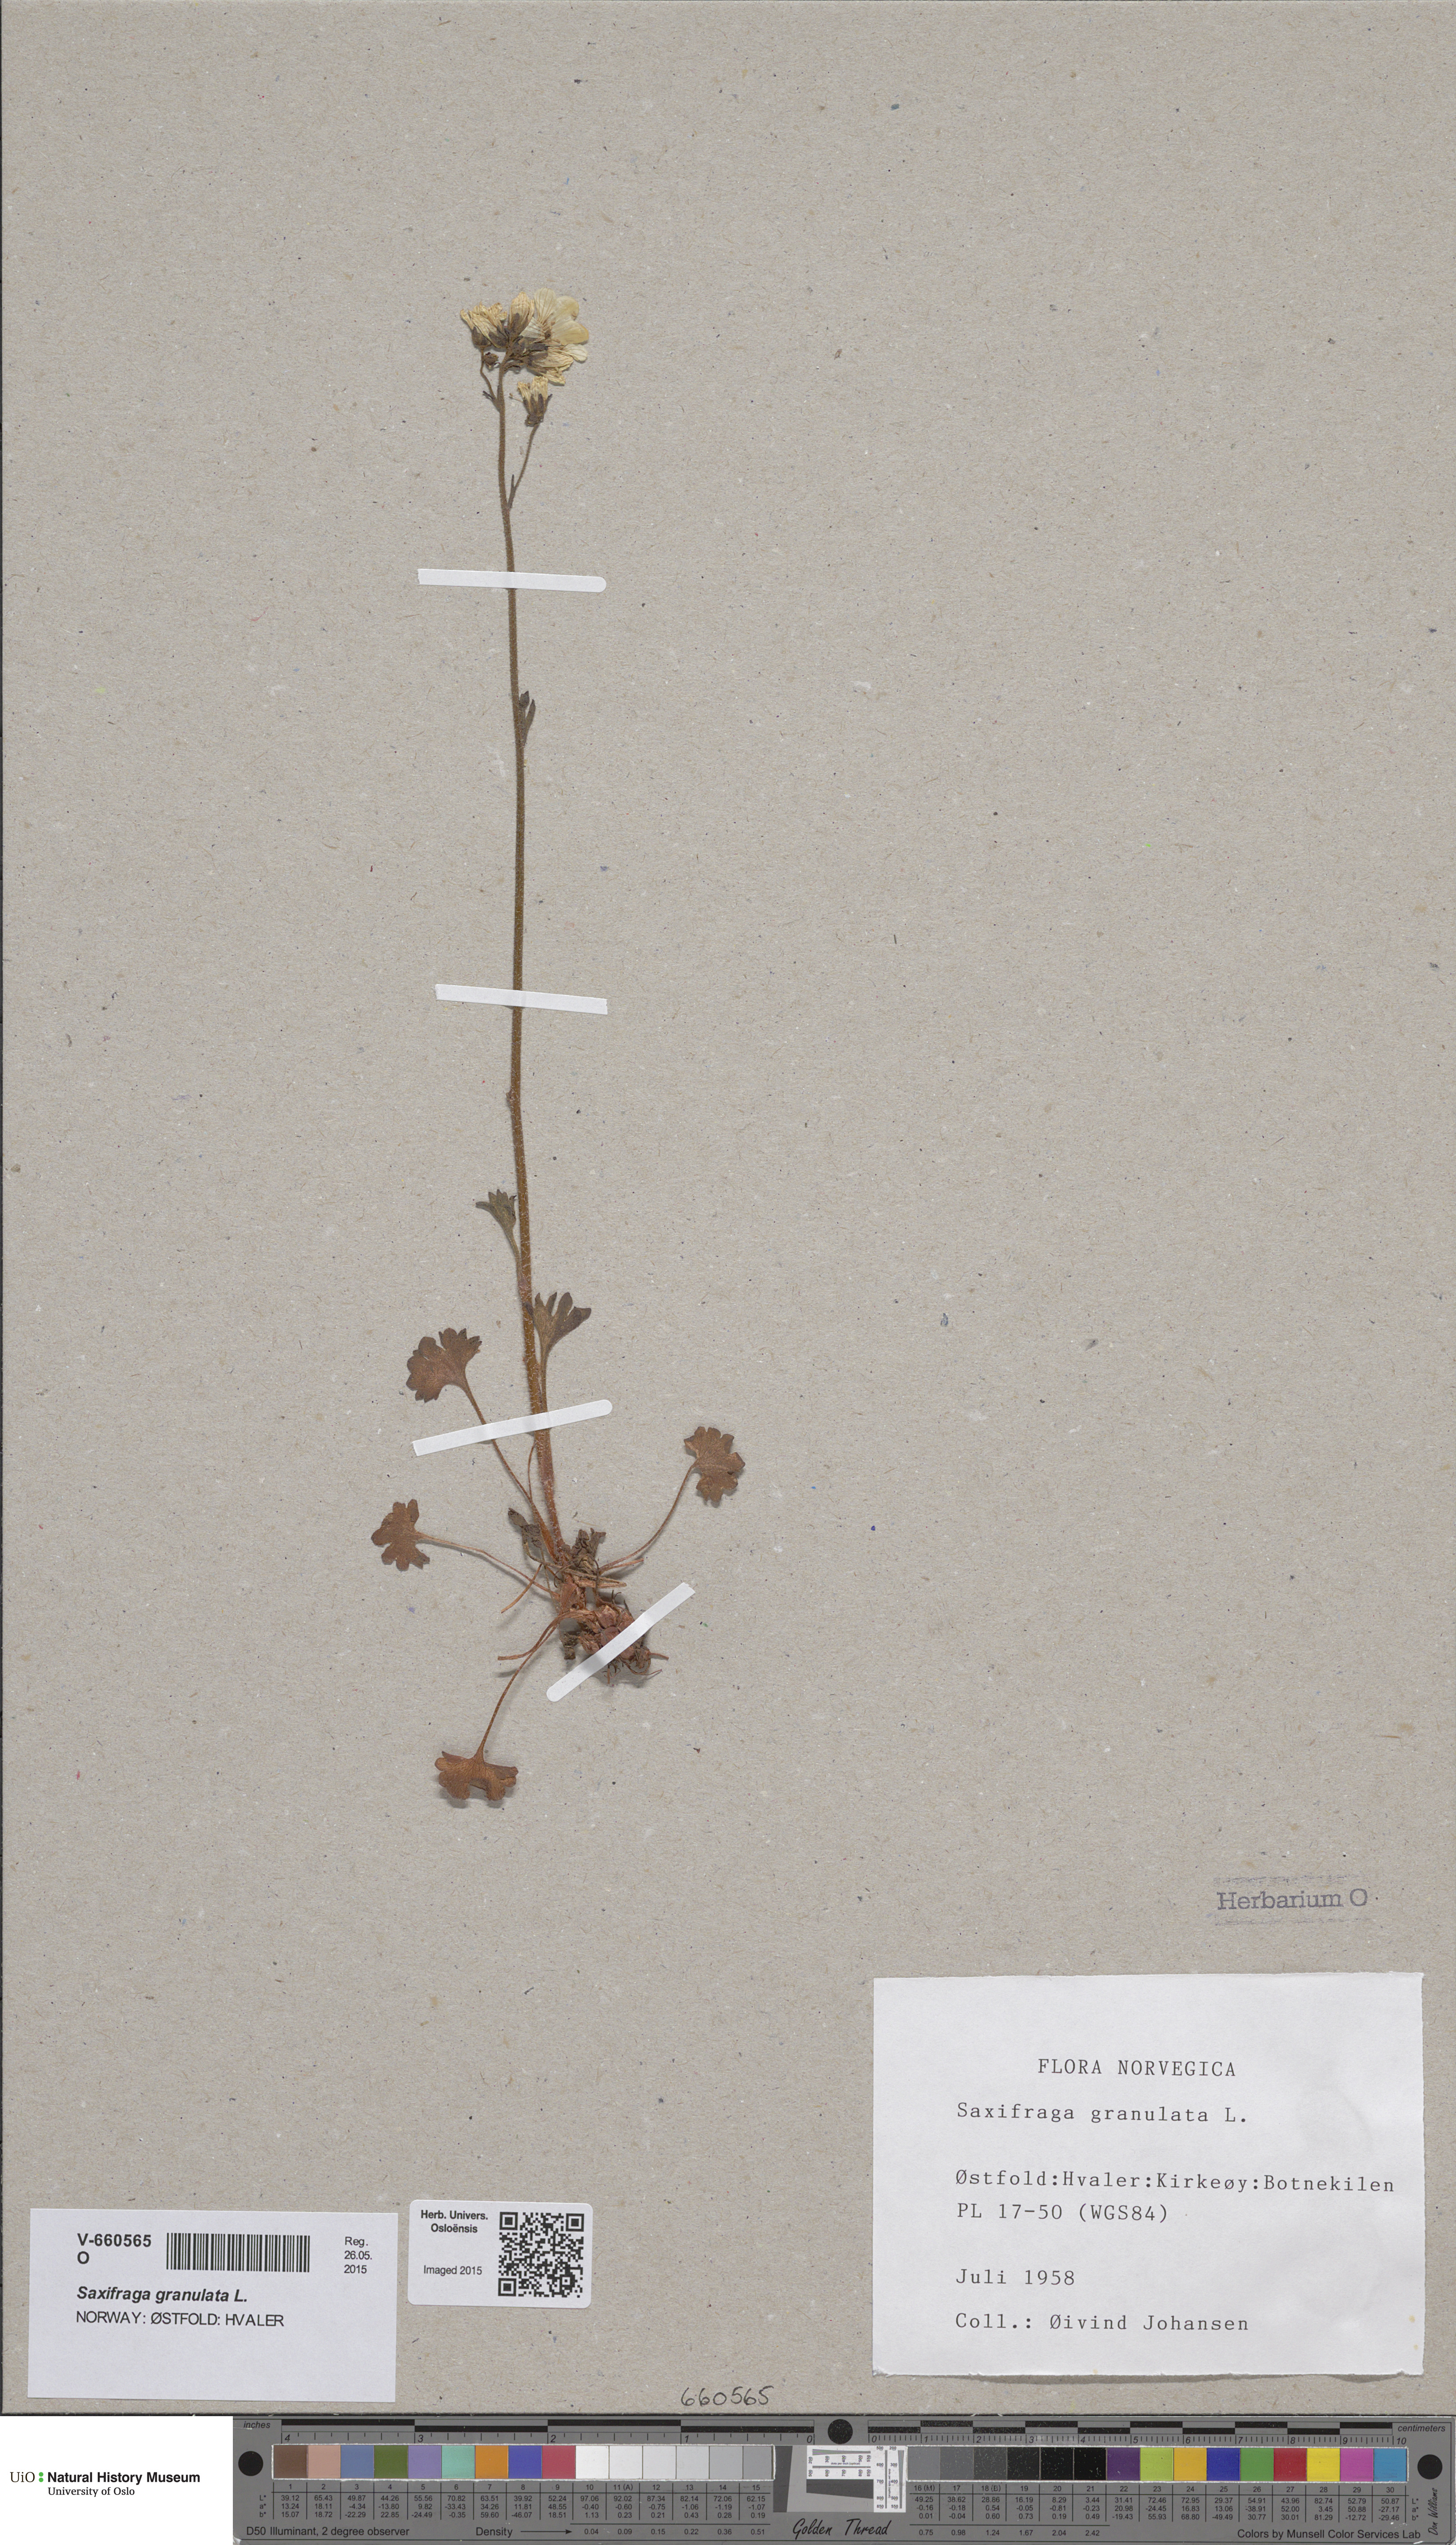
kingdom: Plantae
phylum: Tracheophyta
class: Magnoliopsida
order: Saxifragales
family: Saxifragaceae
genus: Saxifraga
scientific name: Saxifraga granulata
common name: Meadow saxifrage
